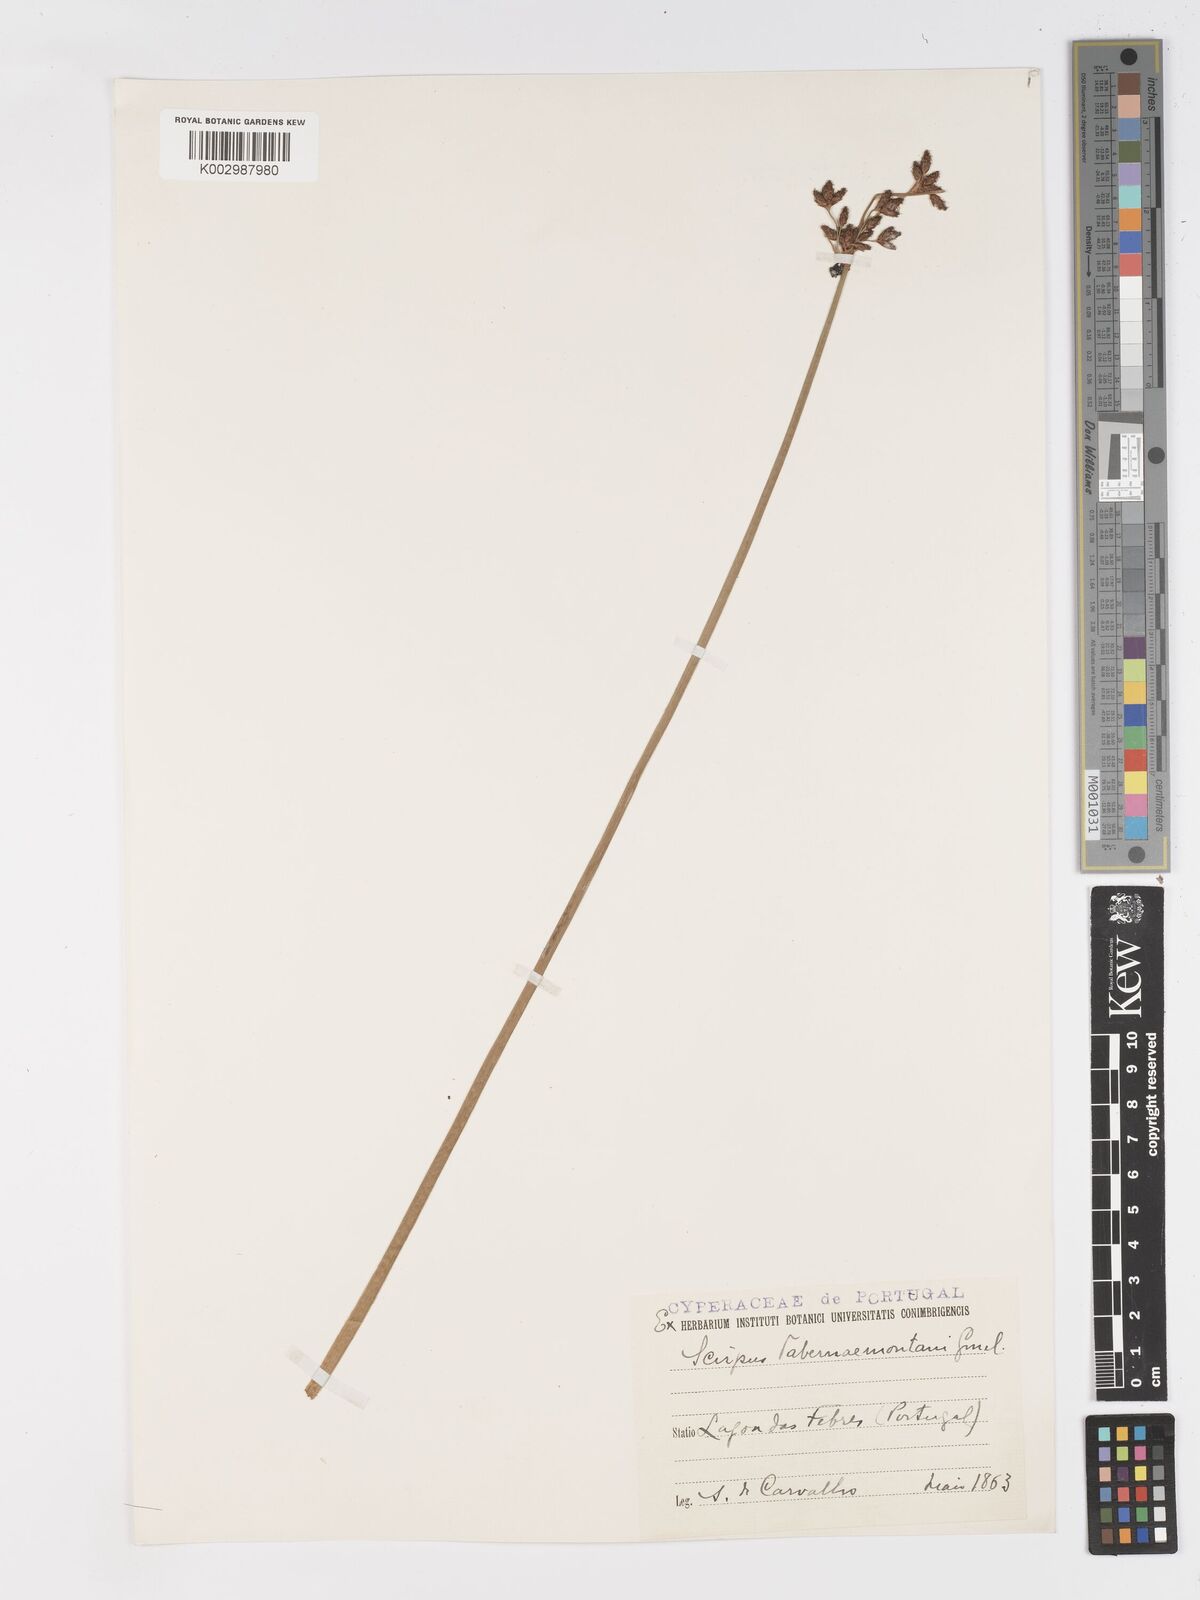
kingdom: Plantae
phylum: Tracheophyta
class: Liliopsida
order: Poales
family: Cyperaceae
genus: Schoenoplectus
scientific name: Schoenoplectus tabernaemontani
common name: Grey club-rush
